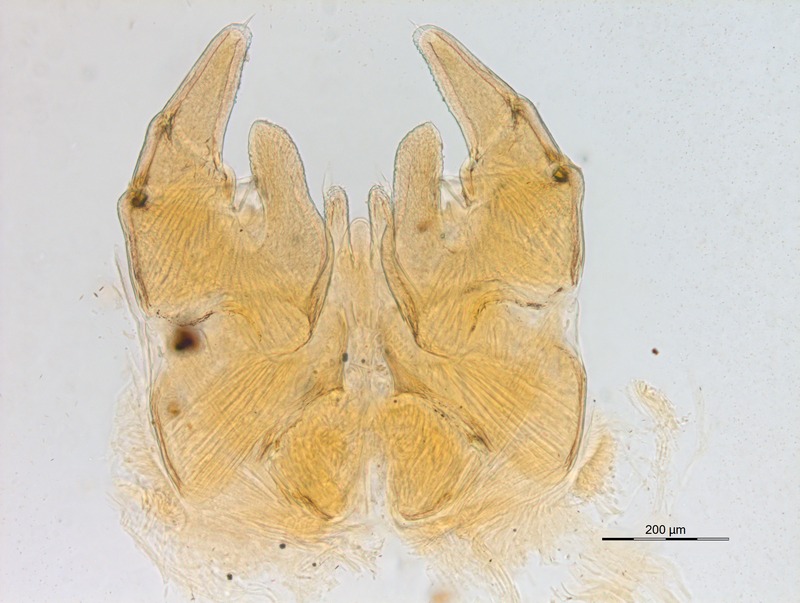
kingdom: Animalia
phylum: Arthropoda
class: Diplopoda
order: Glomerida
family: Protoglomeridae
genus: Glomerellina
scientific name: Glomerellina laurae
